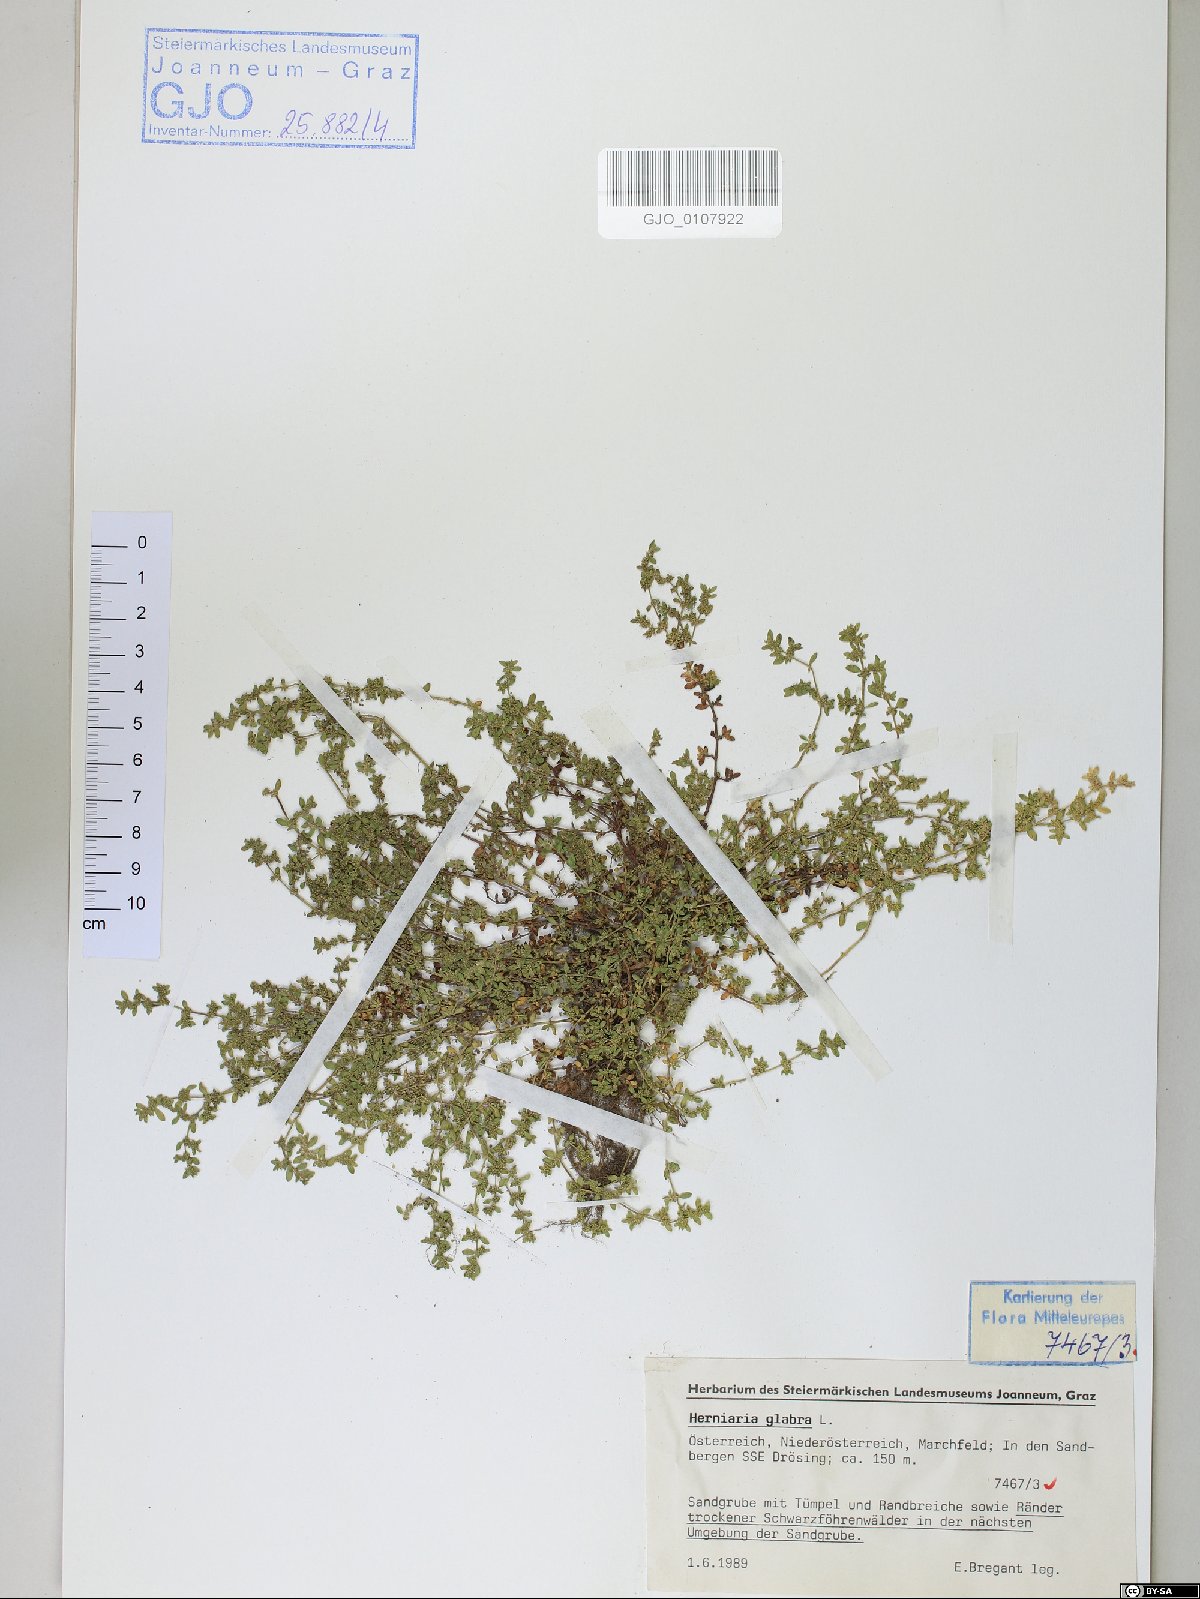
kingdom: Plantae
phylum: Tracheophyta
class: Magnoliopsida
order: Caryophyllales
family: Caryophyllaceae
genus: Herniaria
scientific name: Herniaria glabra
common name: Smooth rupturewort
